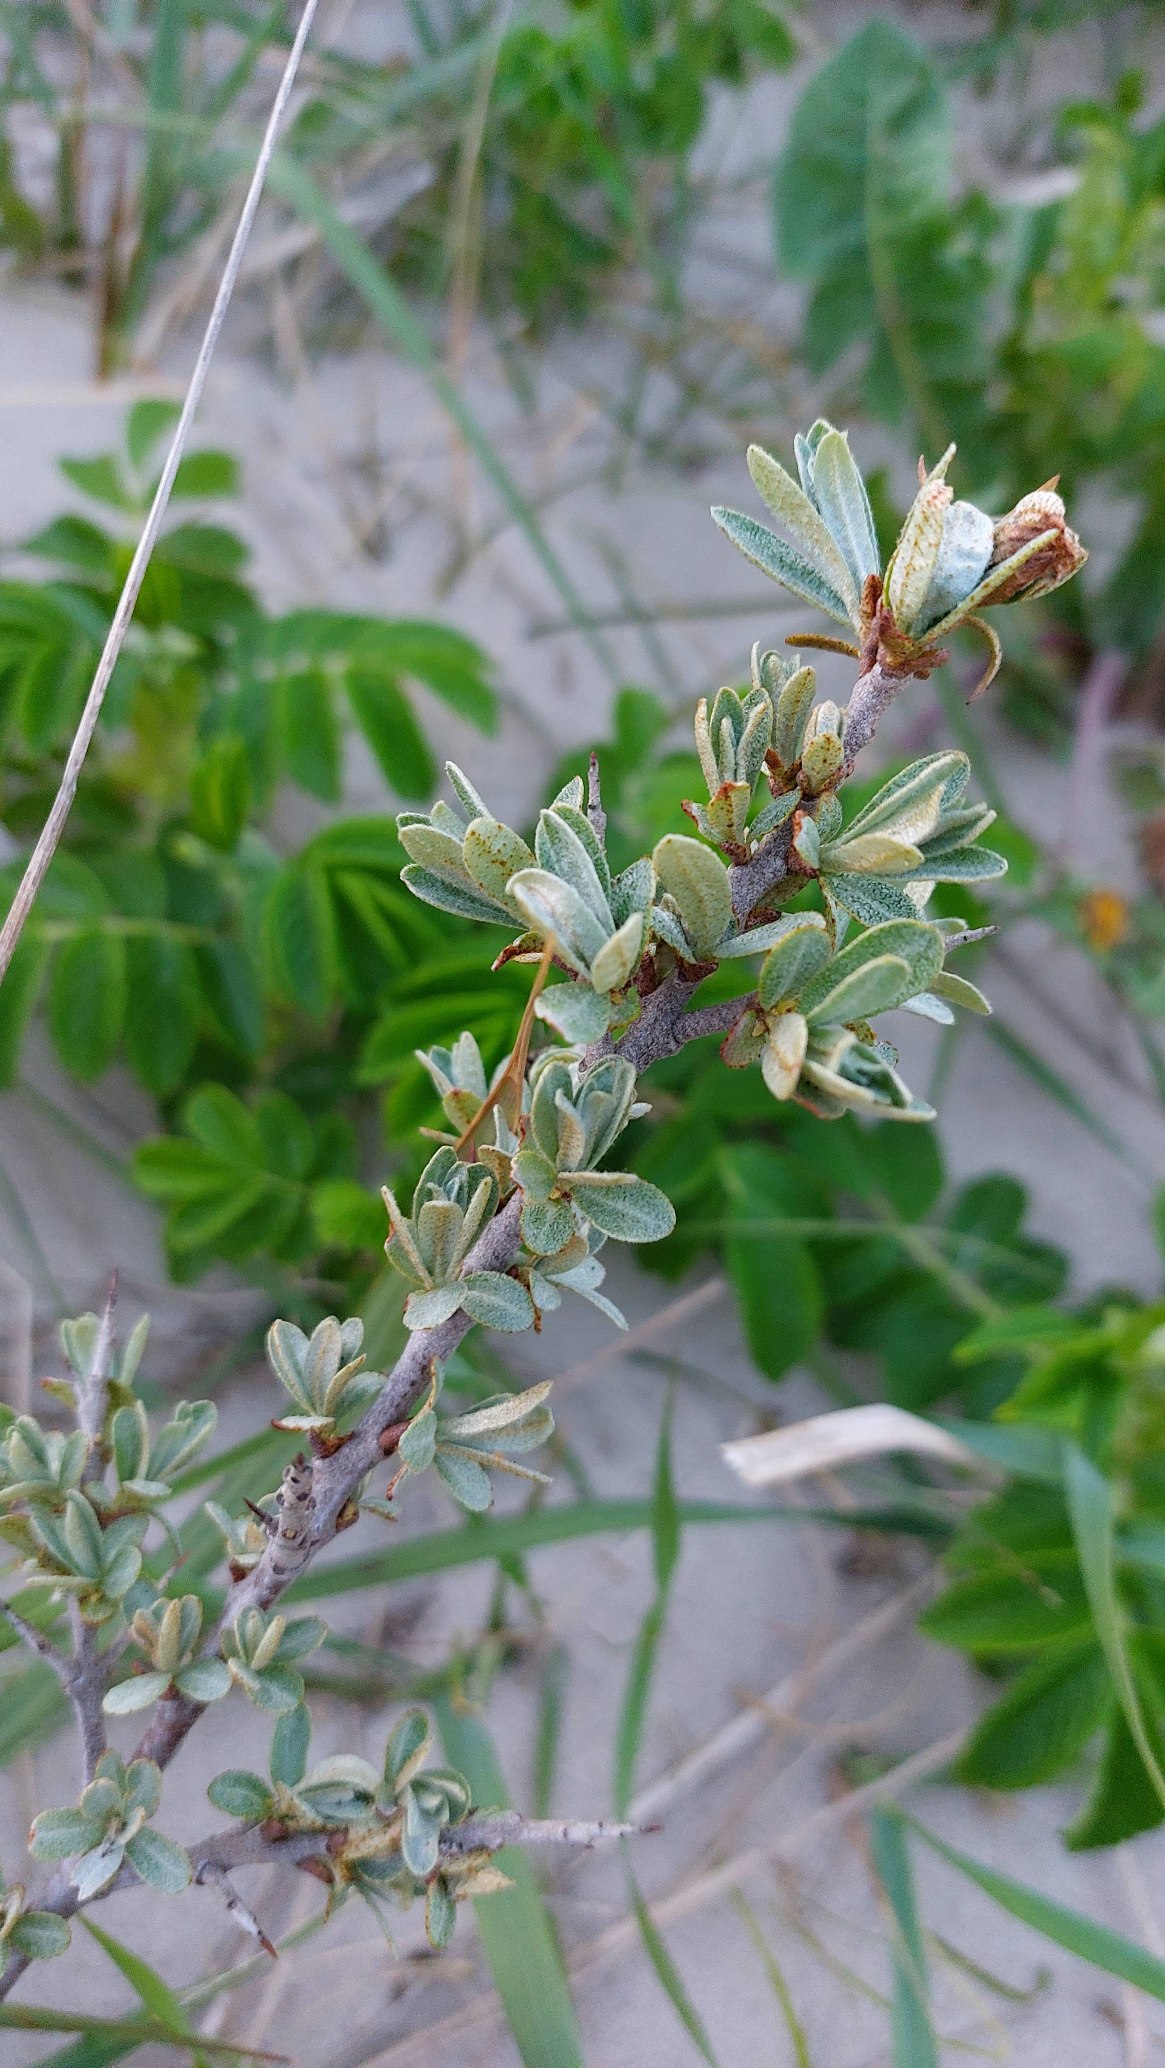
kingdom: Plantae
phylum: Tracheophyta
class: Magnoliopsida
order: Rosales
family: Elaeagnaceae
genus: Hippophae
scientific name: Hippophae rhamnoides
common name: Havtorn
